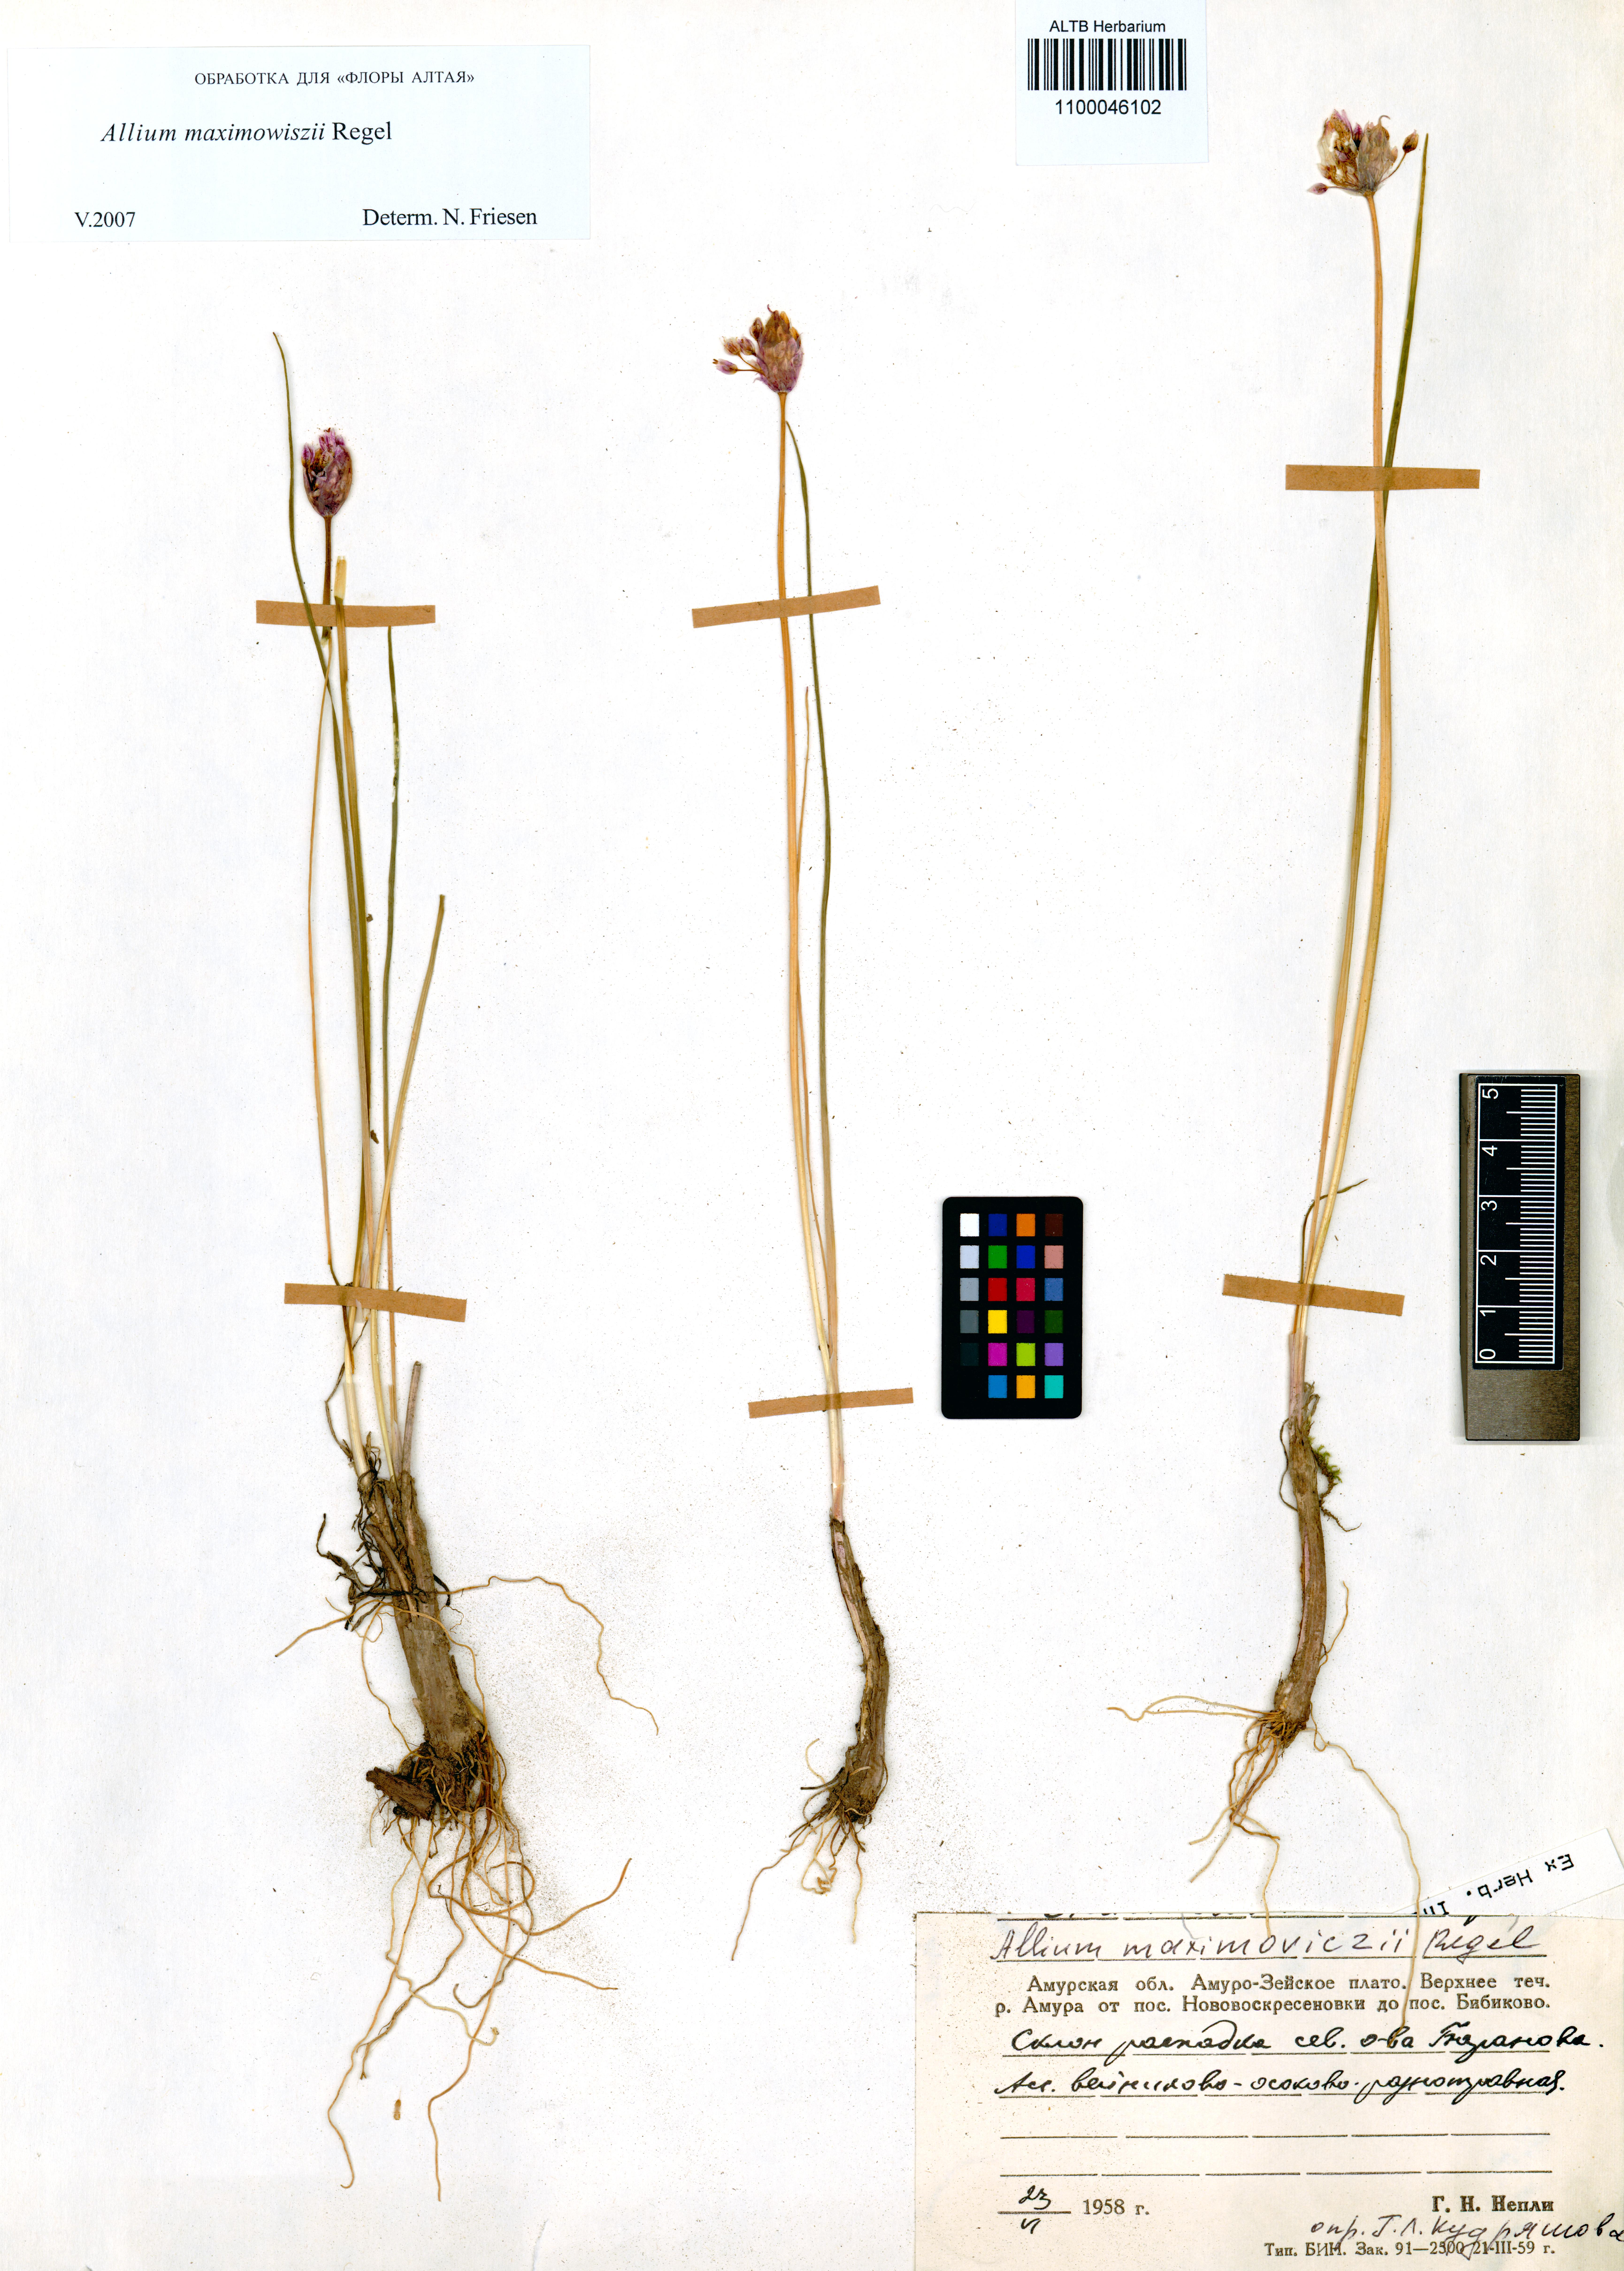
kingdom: Plantae
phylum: Tracheophyta
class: Liliopsida
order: Asparagales
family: Amaryllidaceae
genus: Allium
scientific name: Allium maximowiczii
